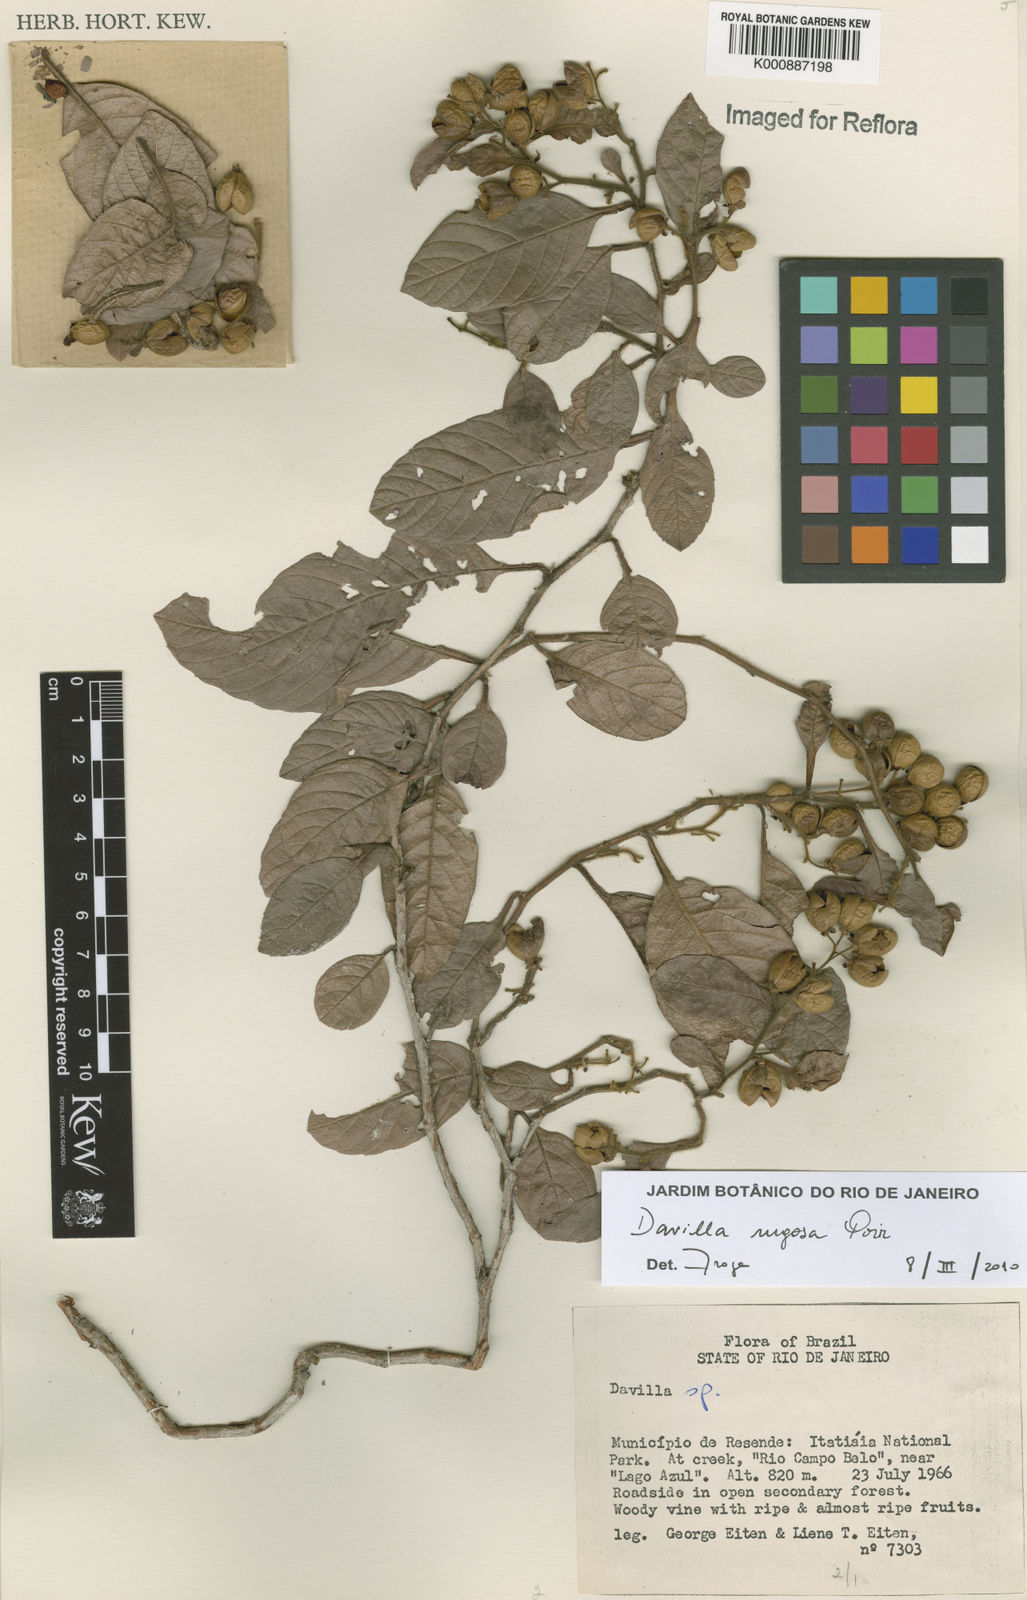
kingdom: Plantae
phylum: Tracheophyta
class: Magnoliopsida
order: Dilleniales
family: Dilleniaceae
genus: Davilla
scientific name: Davilla rugosa
